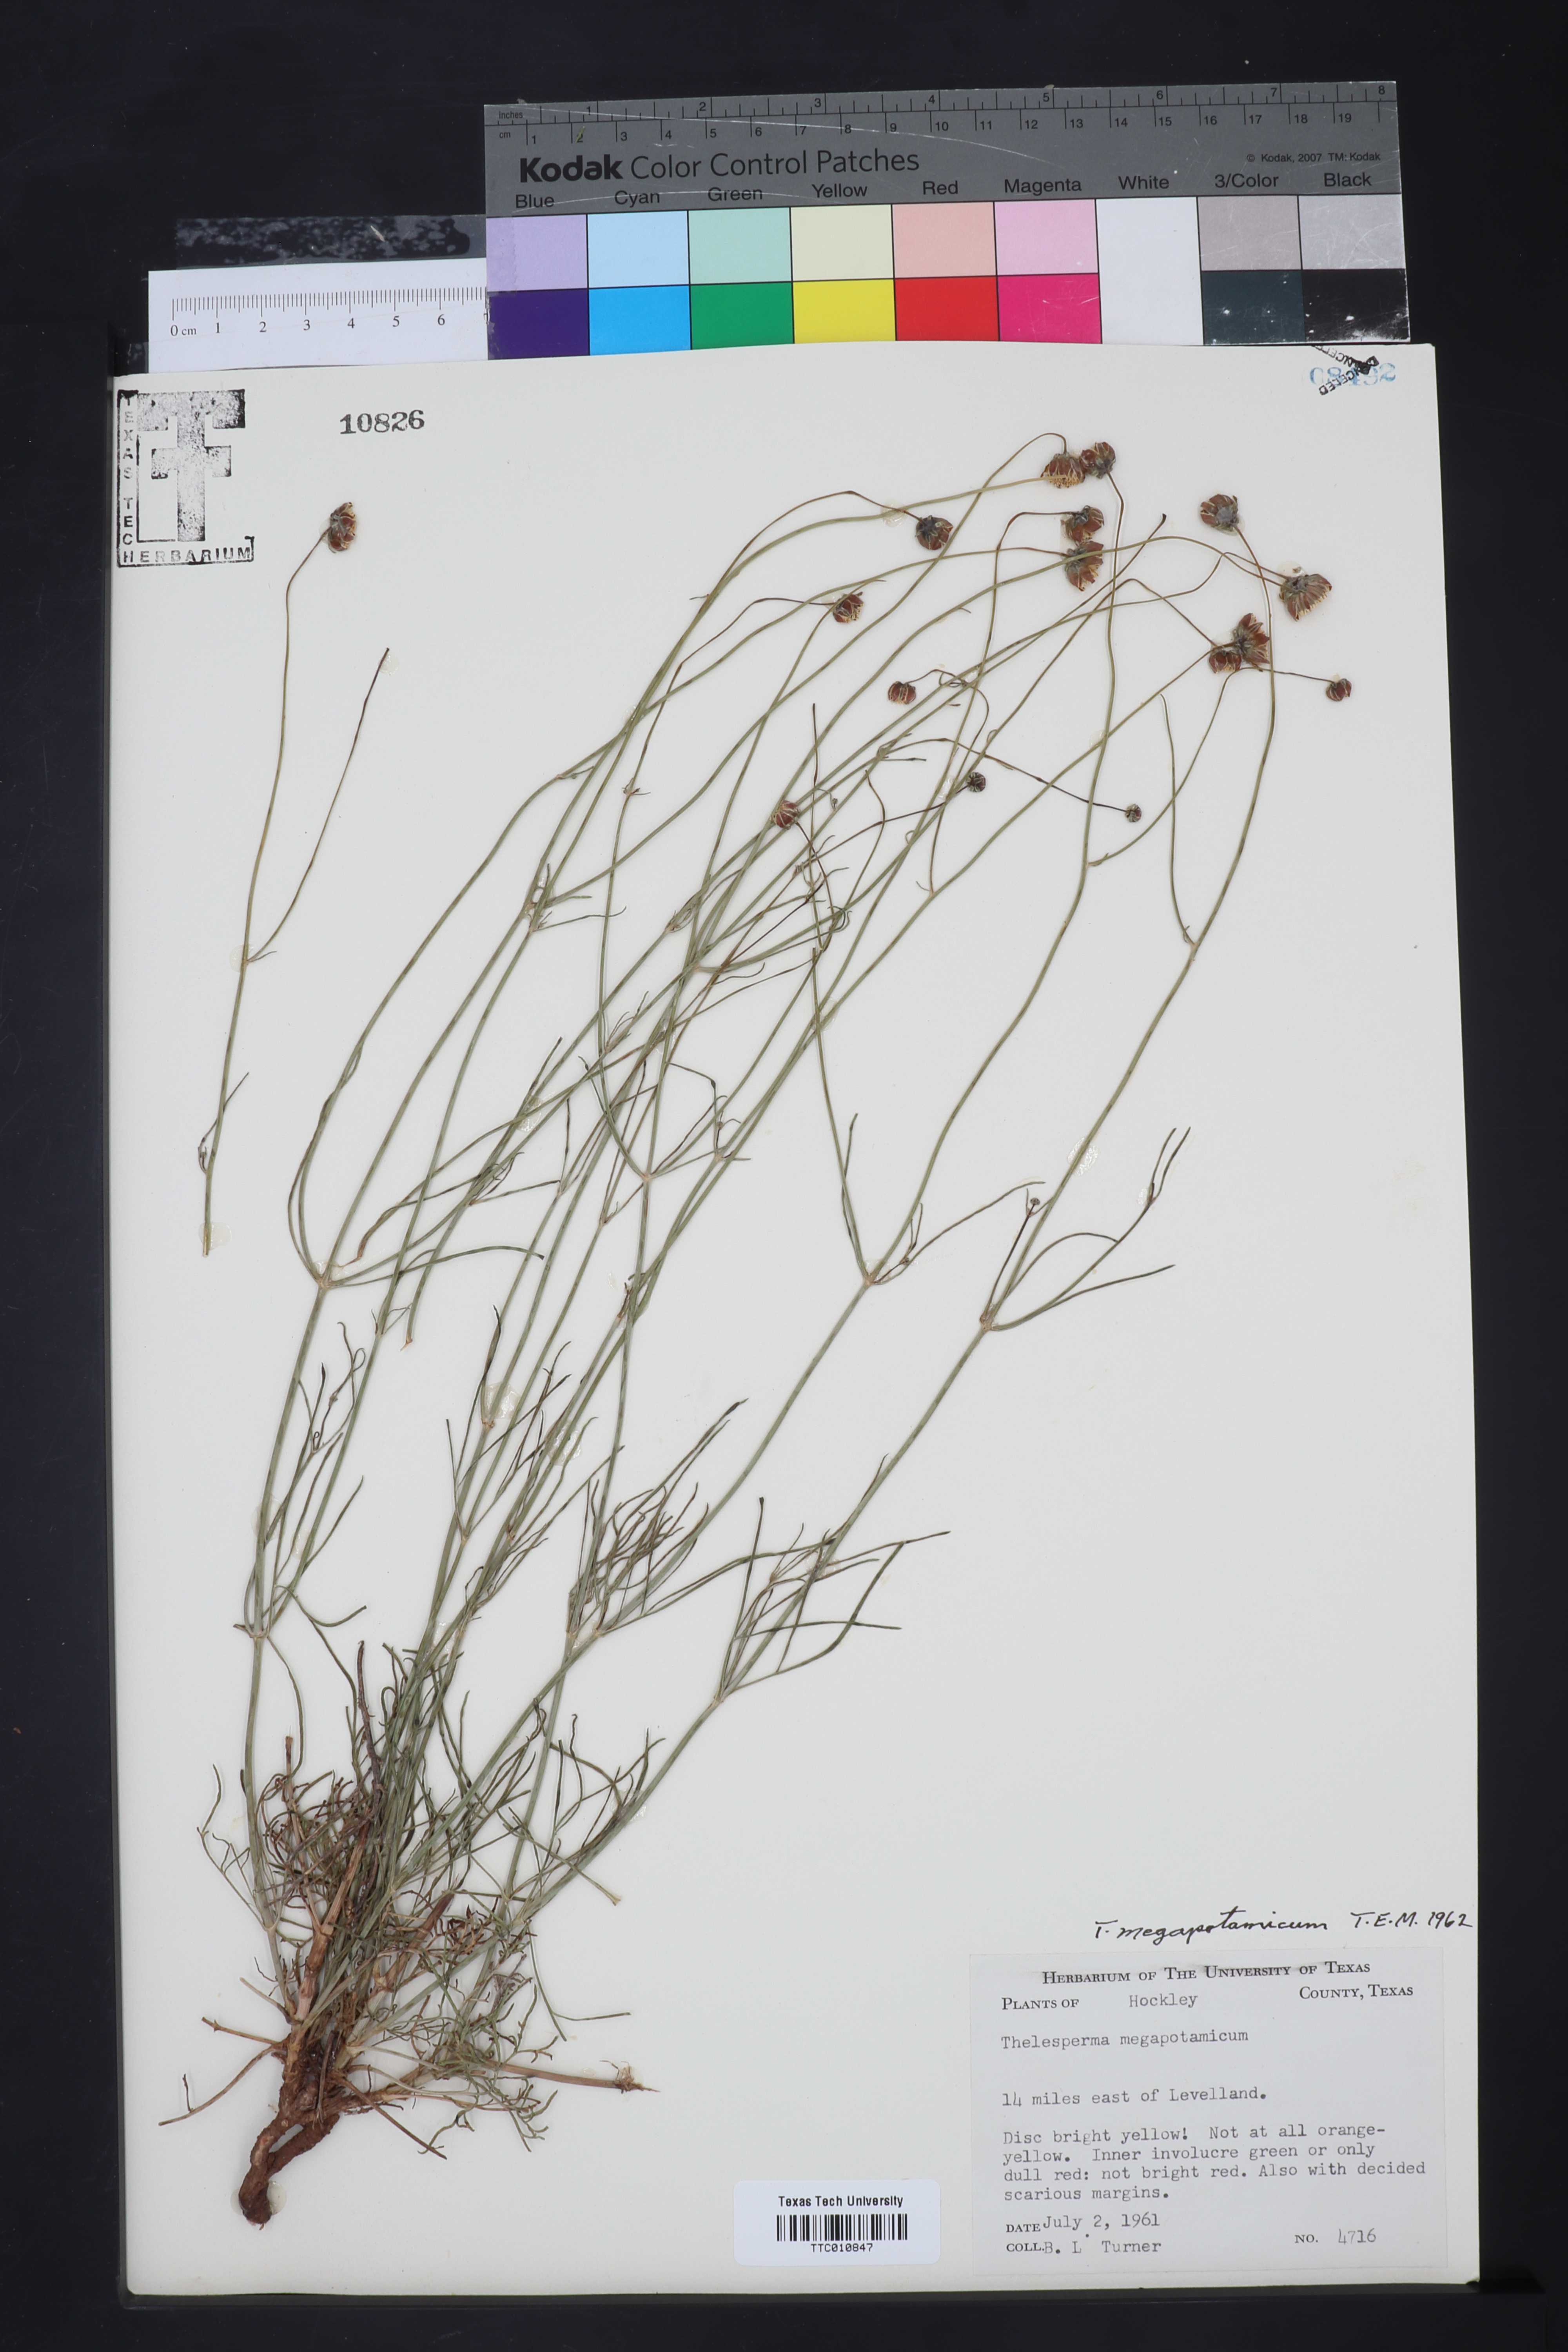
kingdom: Plantae
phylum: Tracheophyta
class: Magnoliopsida
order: Asterales
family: Asteraceae
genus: Thelesperma
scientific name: Thelesperma megapotamicum
